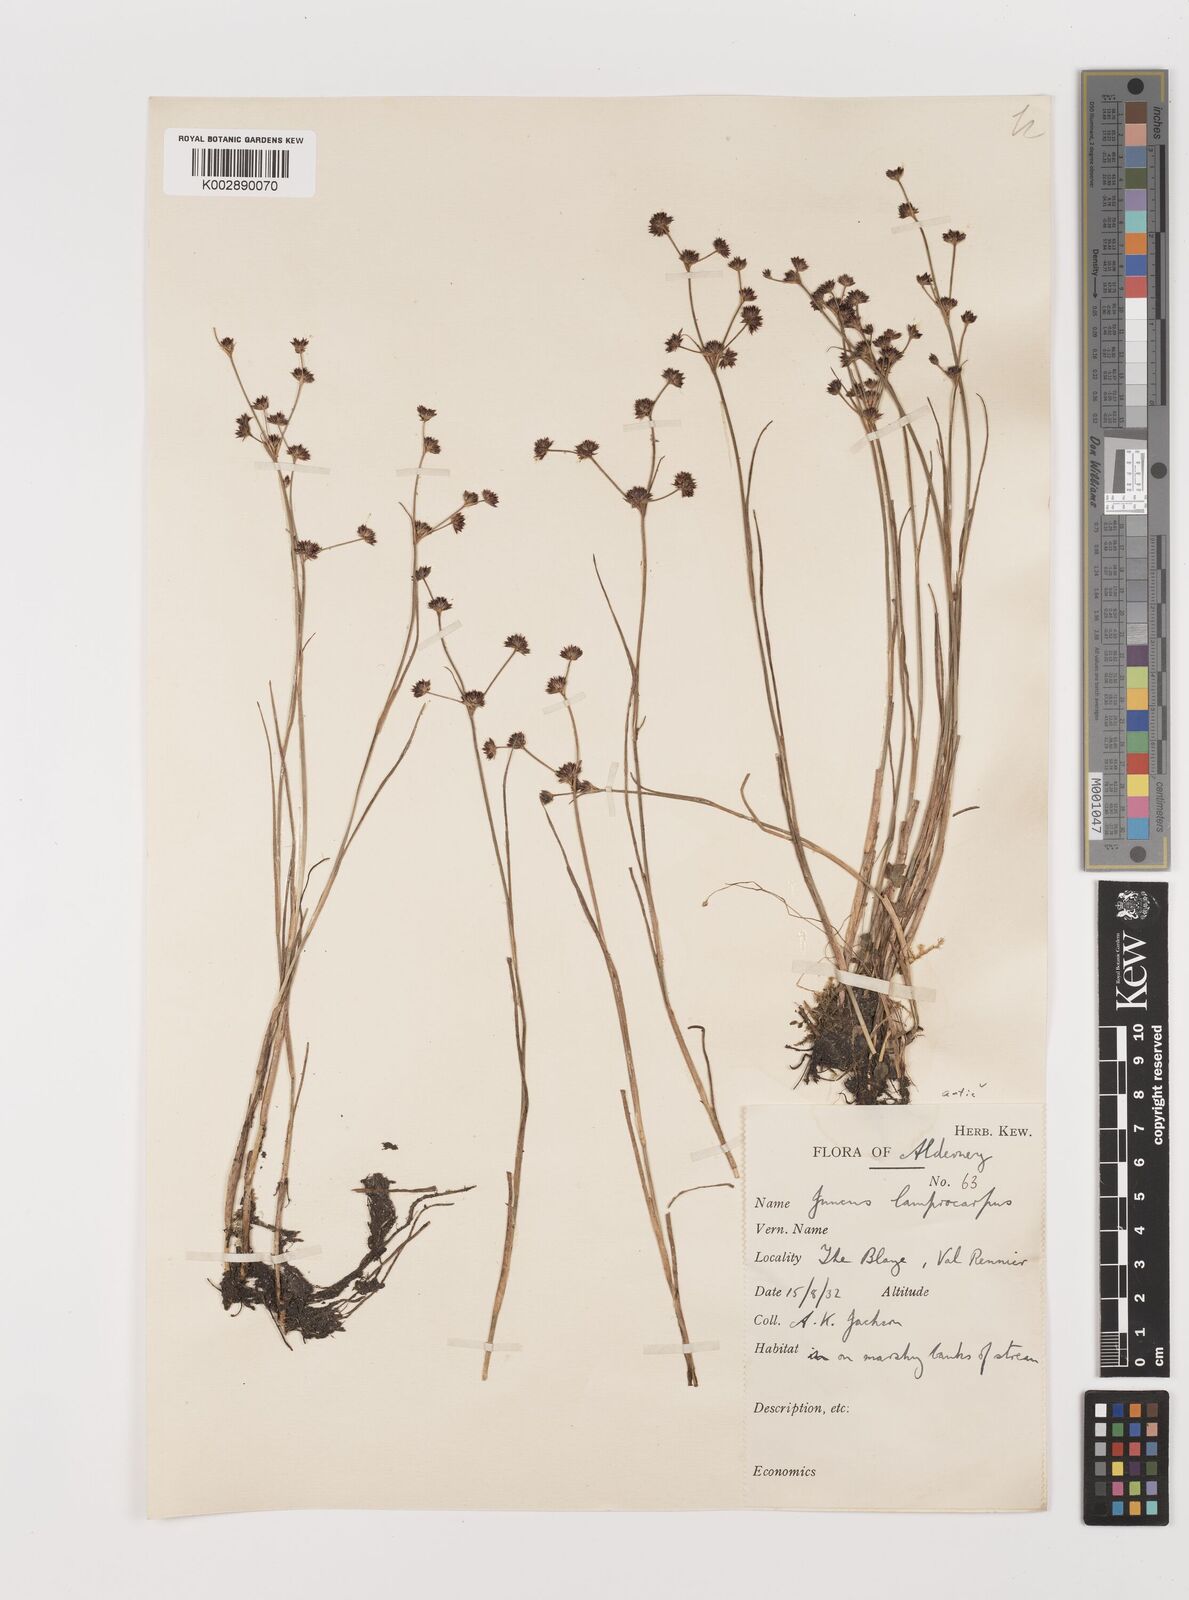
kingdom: Plantae
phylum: Tracheophyta
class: Liliopsida
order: Poales
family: Juncaceae
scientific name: Juncaceae
